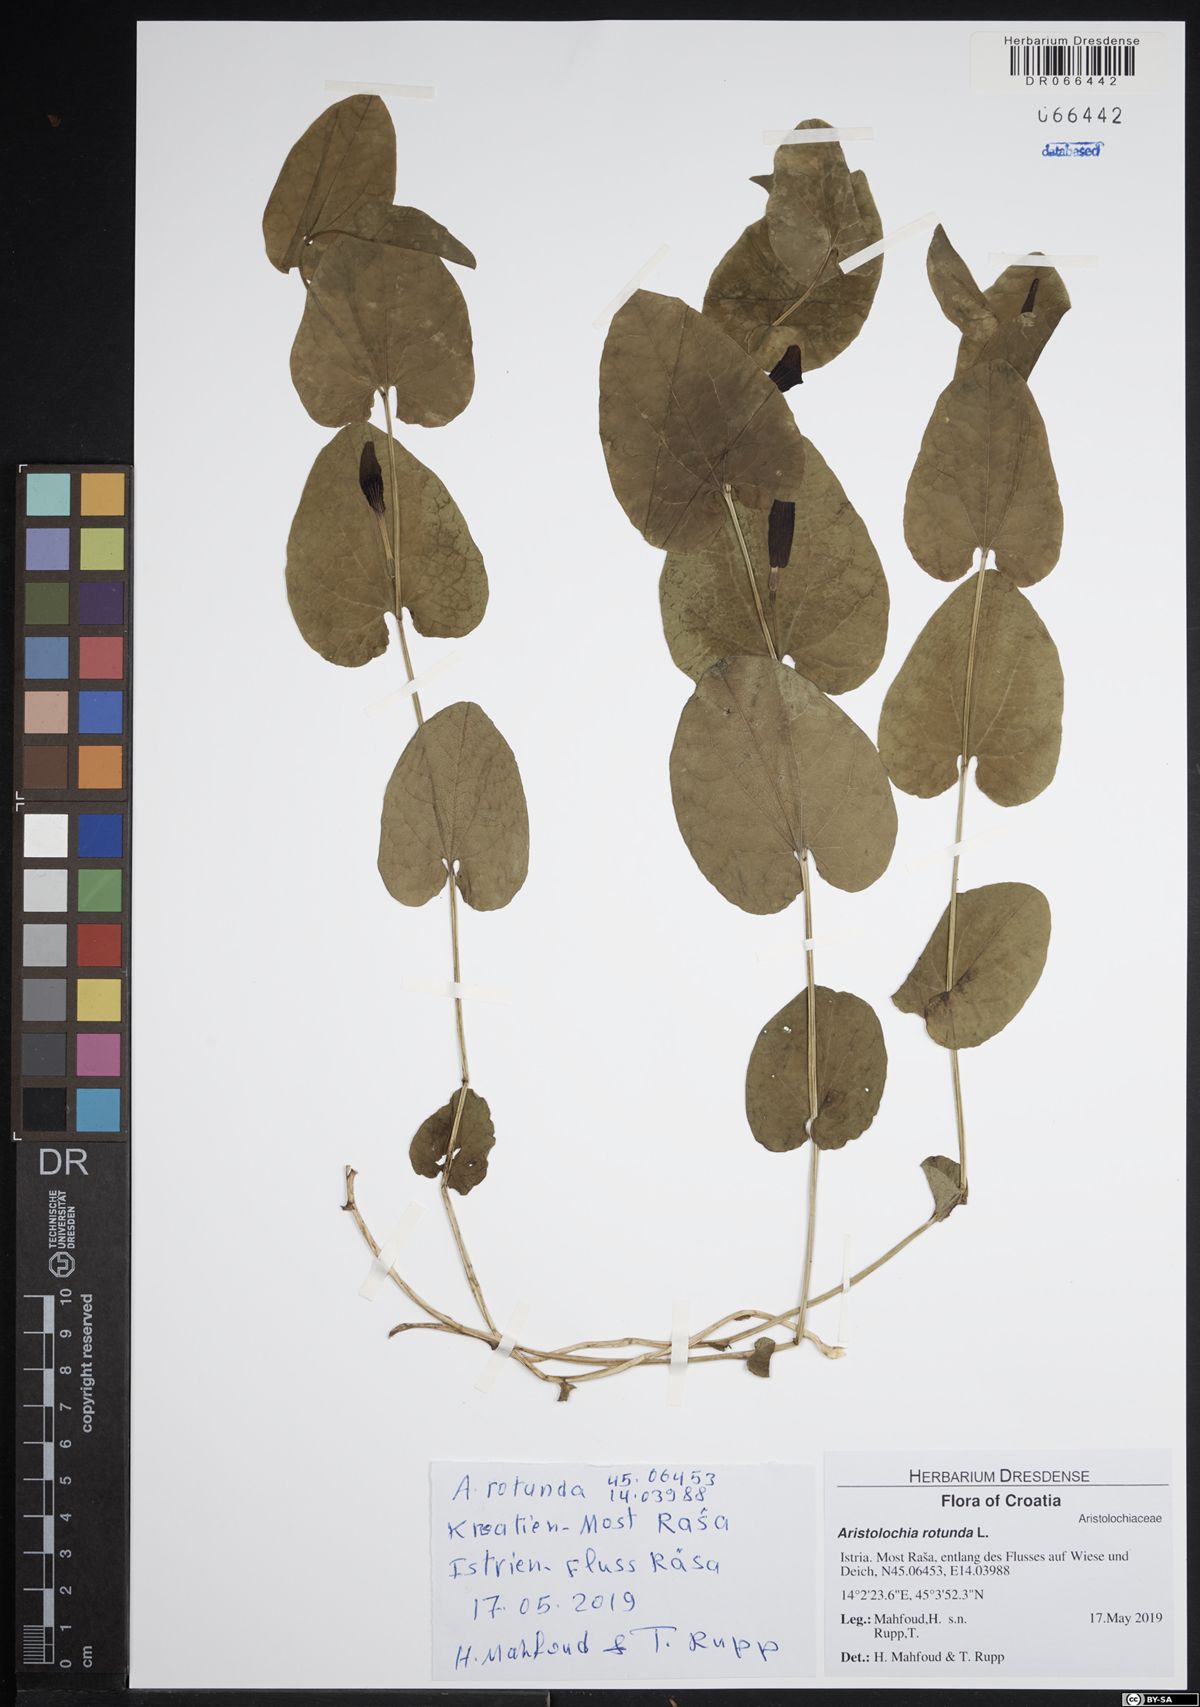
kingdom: Plantae
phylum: Tracheophyta
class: Magnoliopsida
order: Piperales
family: Aristolochiaceae
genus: Aristolochia
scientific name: Aristolochia rotunda
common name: Smearwort
